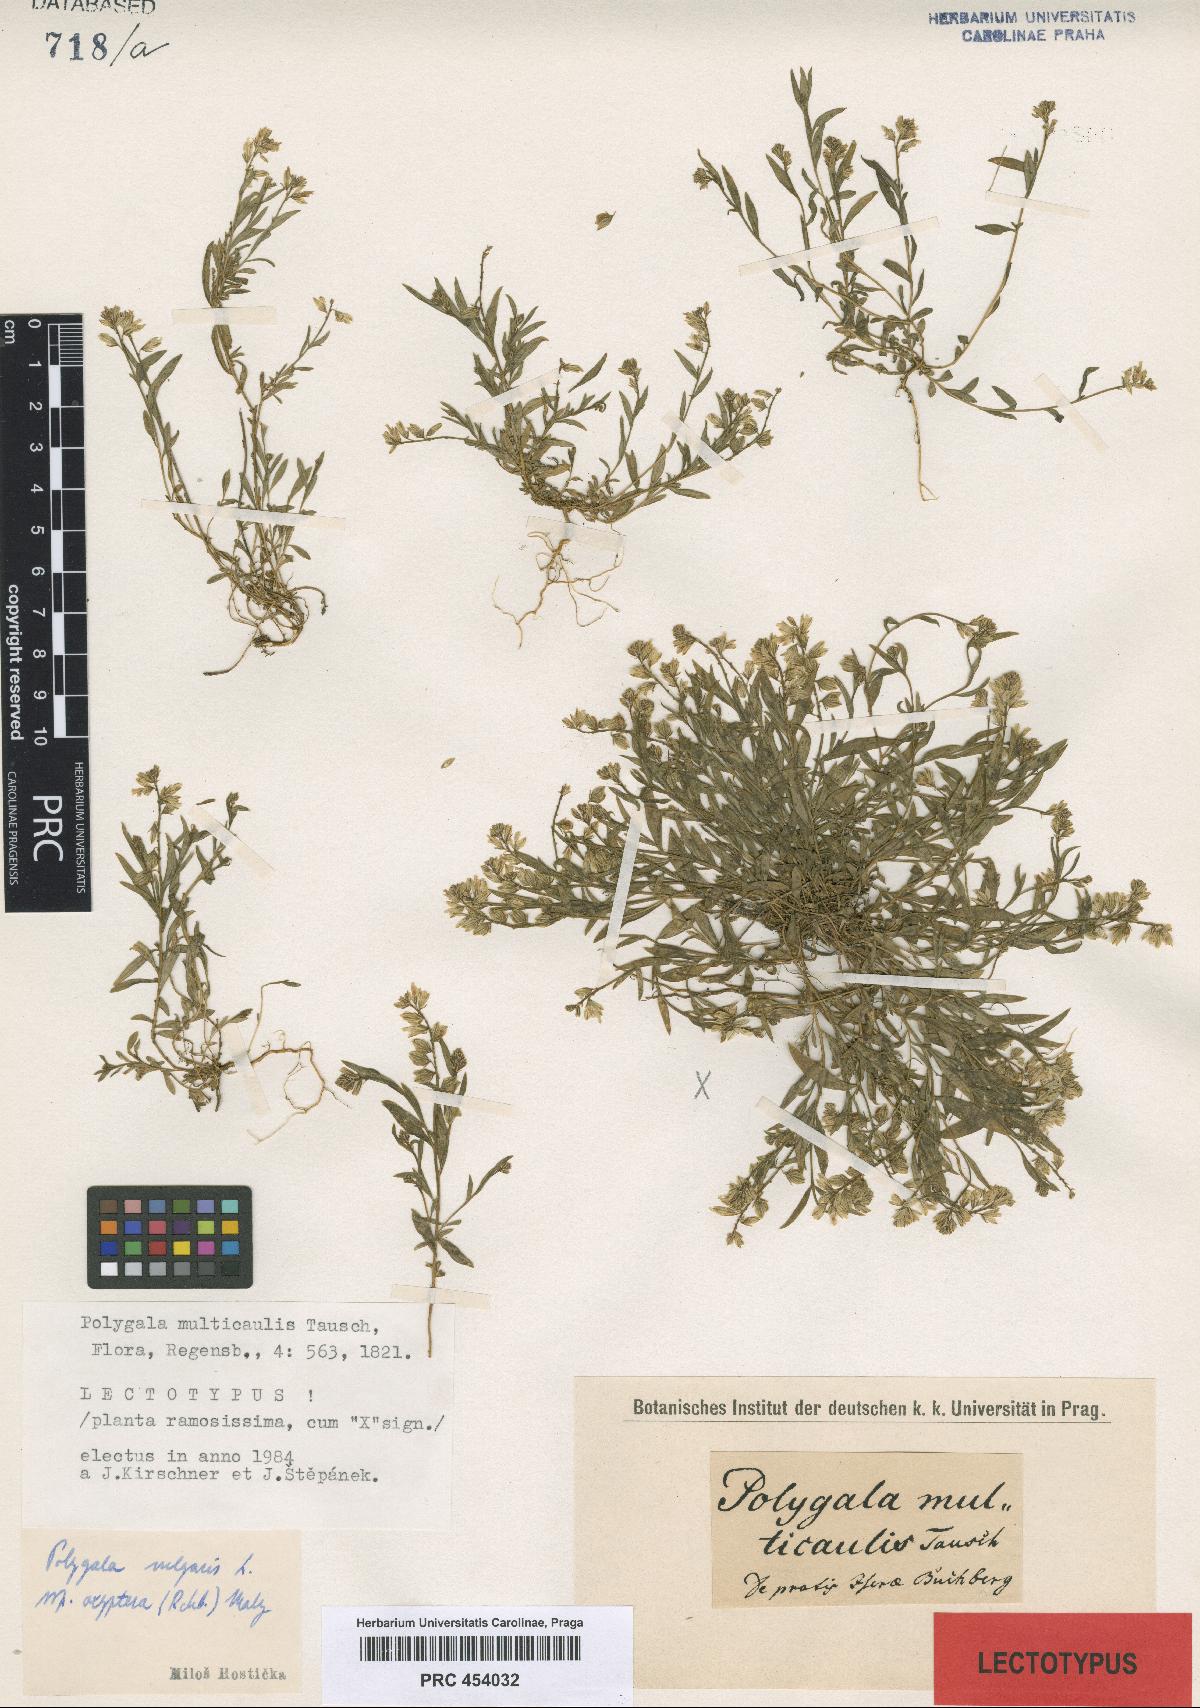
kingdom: Plantae
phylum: Tracheophyta
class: Magnoliopsida
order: Fabales
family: Polygalaceae
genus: Polygala
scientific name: Polygala vulgaris
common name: Common milkwort
